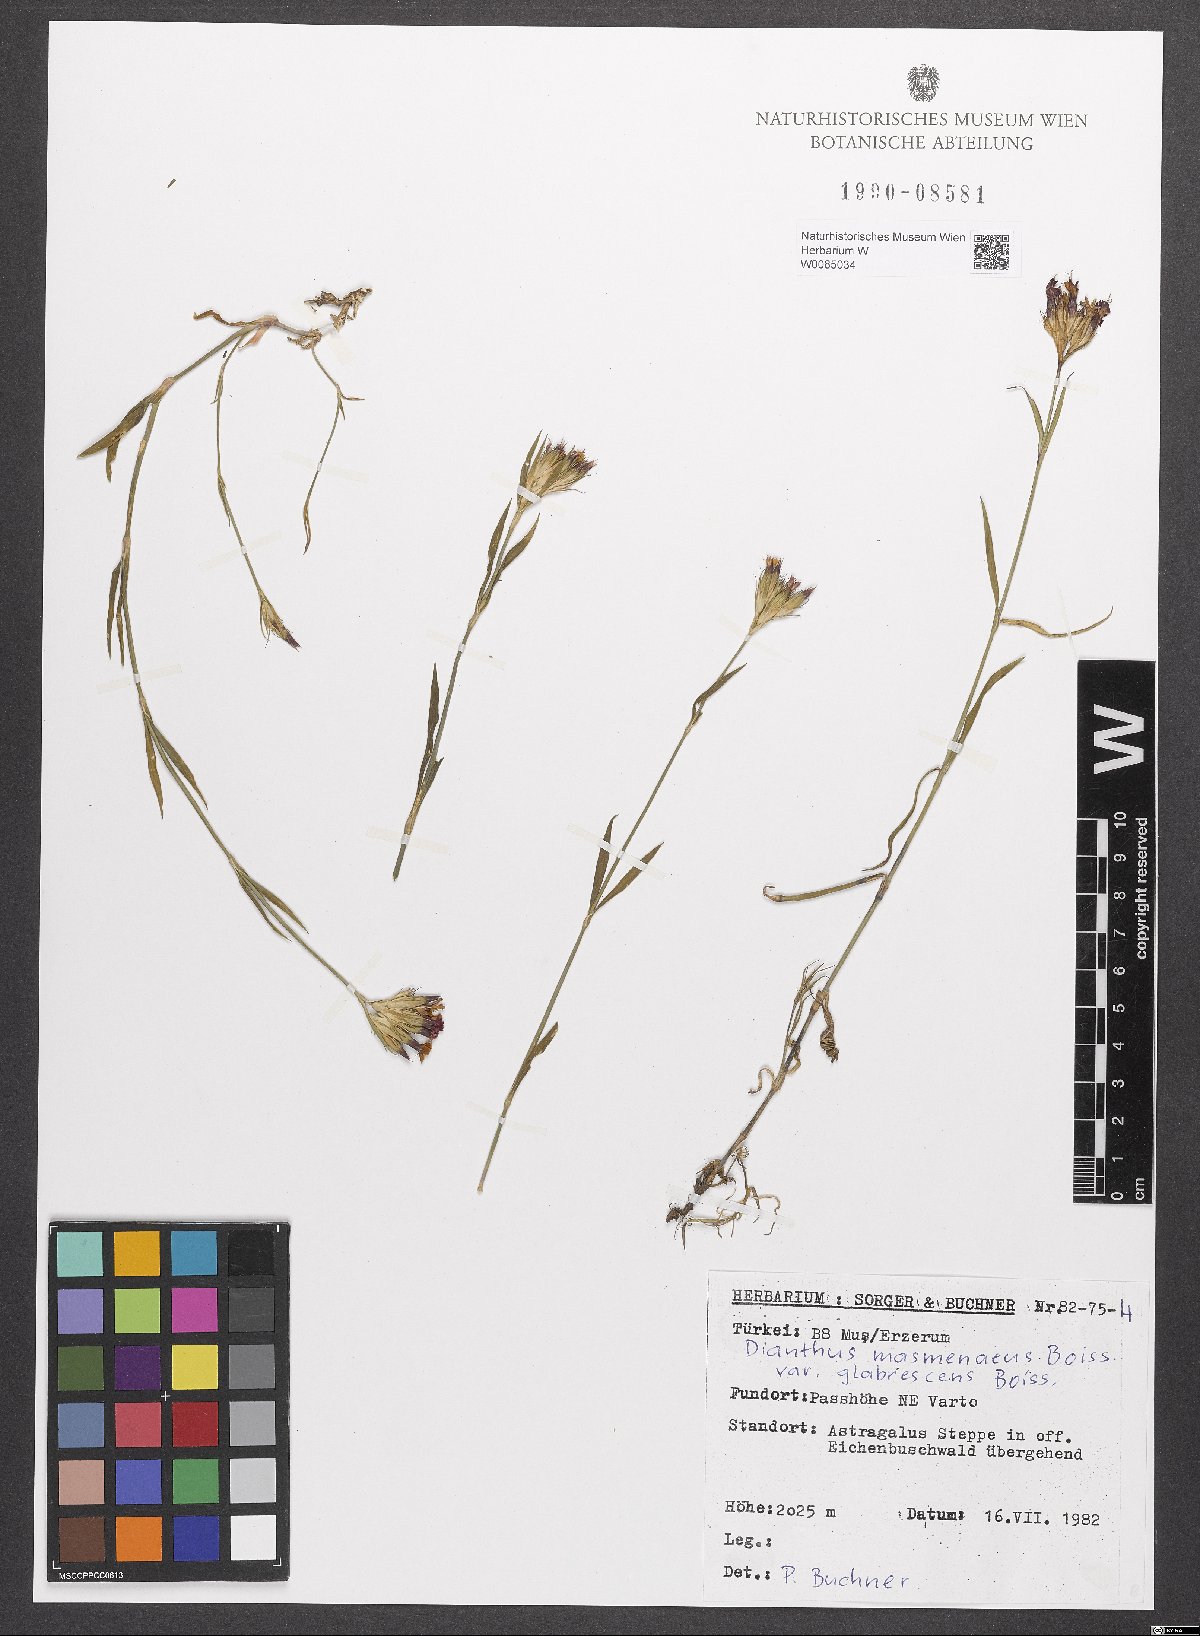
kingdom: Plantae
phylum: Tracheophyta
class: Magnoliopsida
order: Caryophyllales
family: Caryophyllaceae
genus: Dianthus
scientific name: Dianthus masmenaeus
